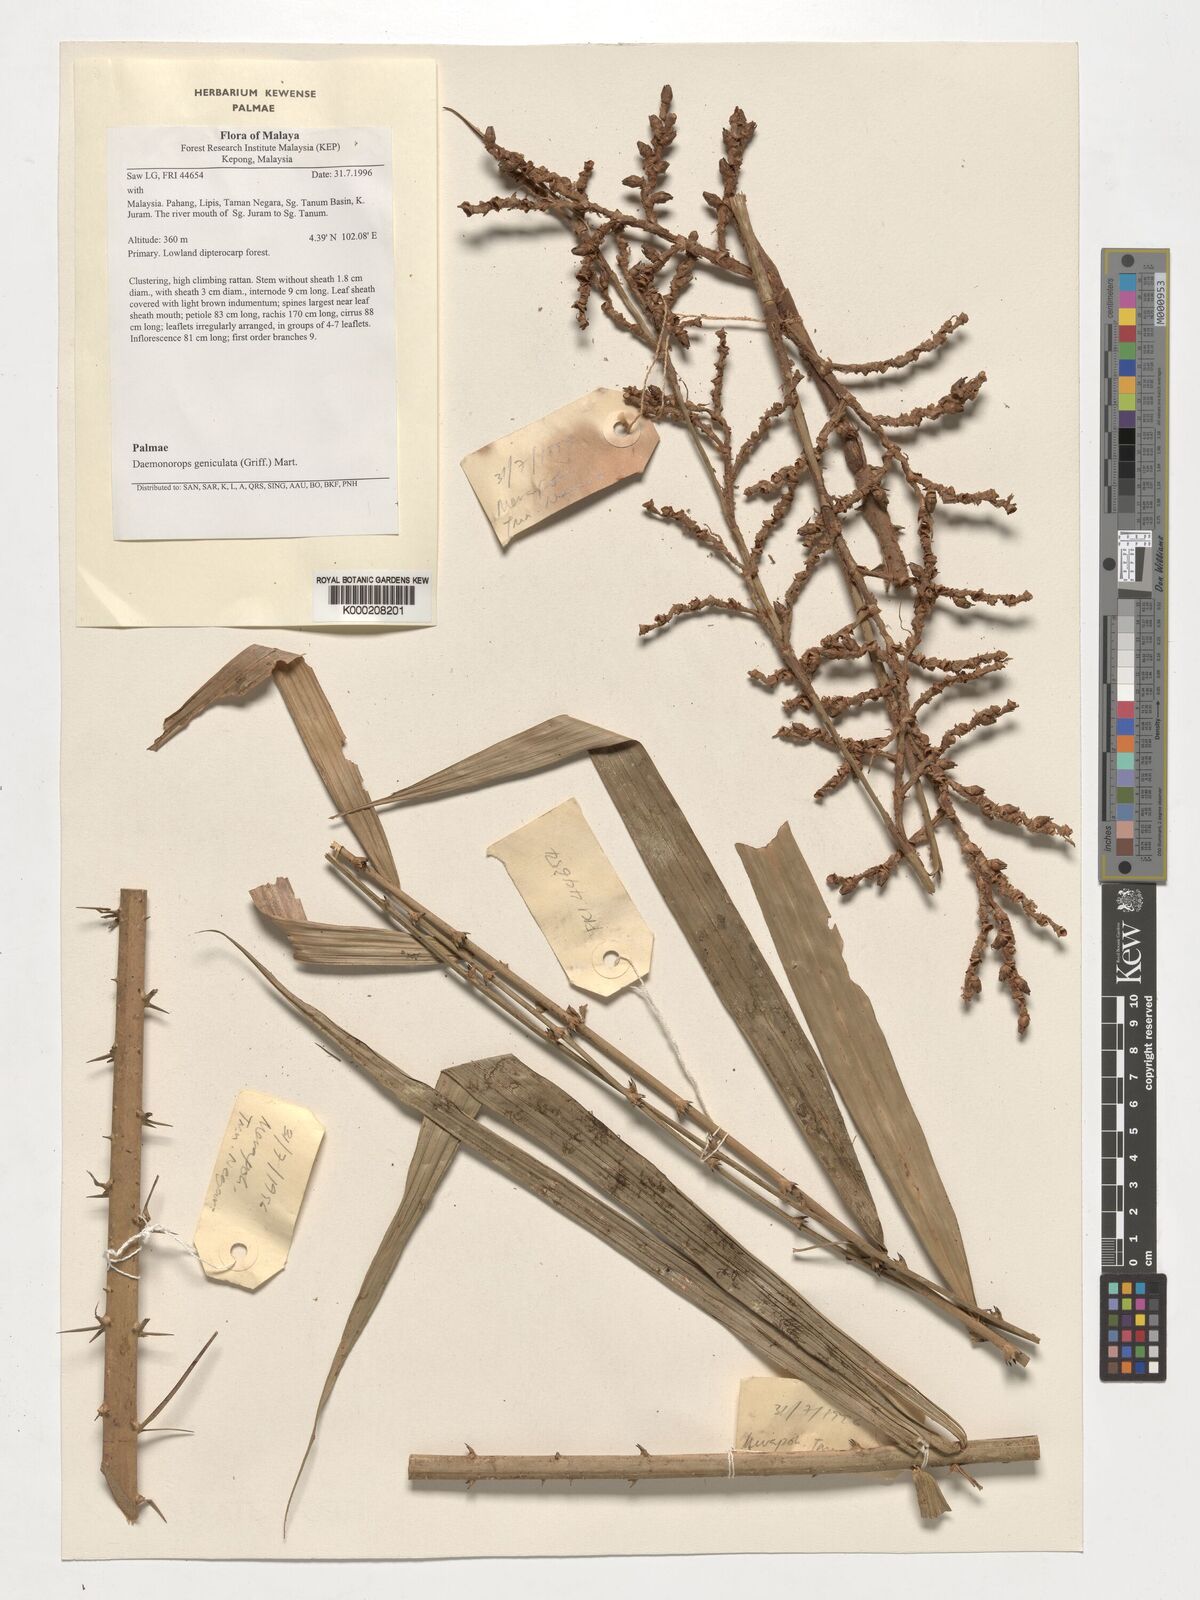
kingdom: Plantae
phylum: Tracheophyta
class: Liliopsida
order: Arecales
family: Arecaceae
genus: Calamus
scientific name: Calamus geniculatus
